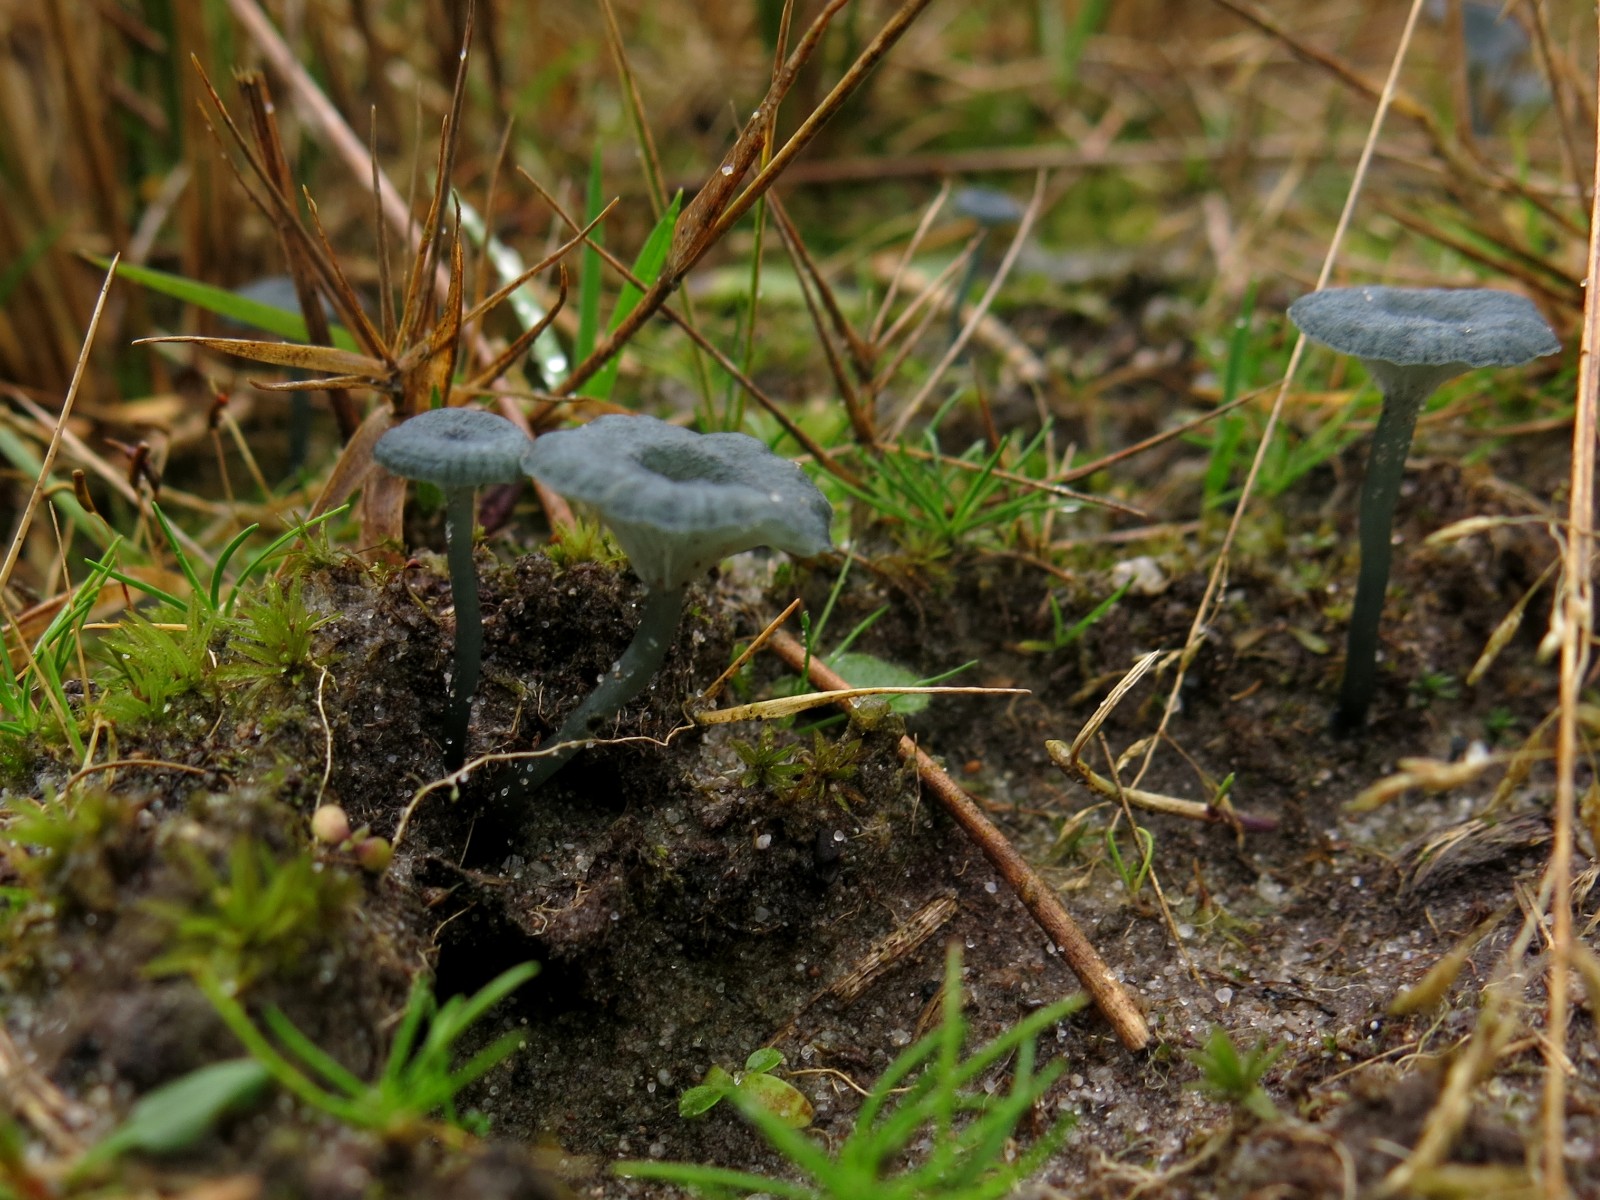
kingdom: Fungi
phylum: Basidiomycota
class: Agaricomycetes
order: Agaricales
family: Hygrophoraceae
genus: Arrhenia
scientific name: Arrhenia chlorocyanea
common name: blågrøn fontænehat
